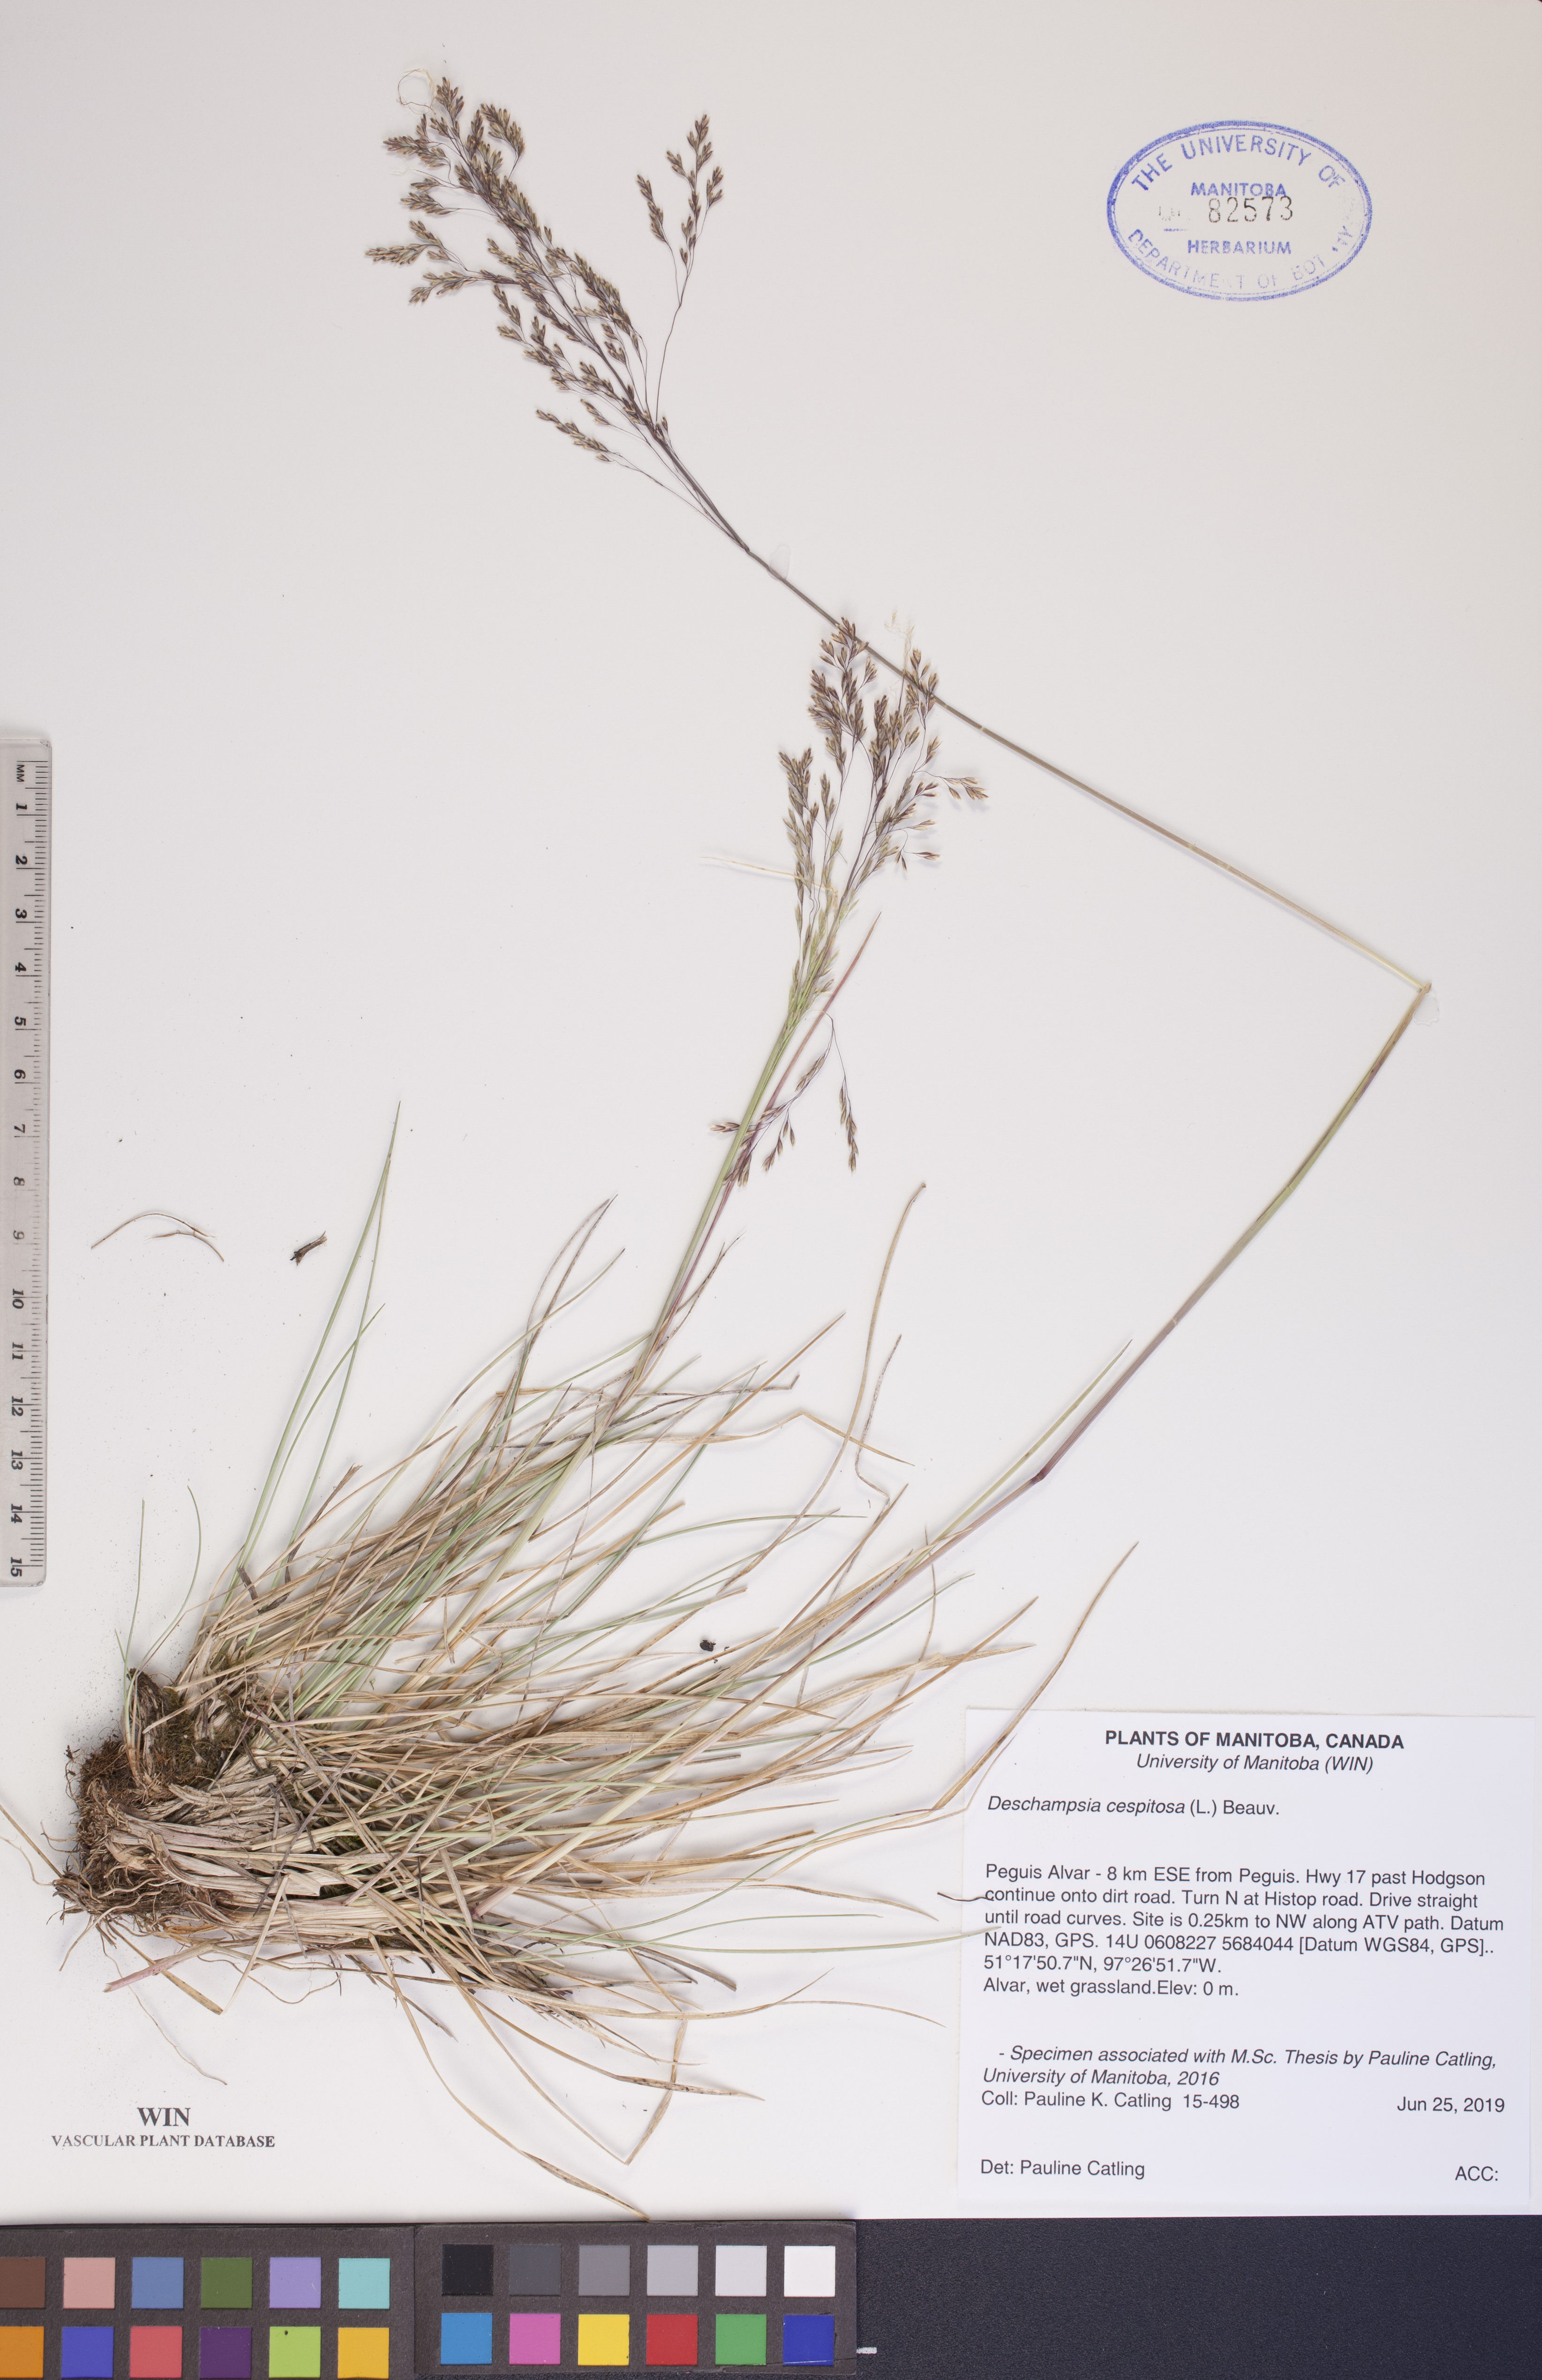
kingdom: Plantae
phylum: Tracheophyta
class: Liliopsida
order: Poales
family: Poaceae
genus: Deschampsia
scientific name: Deschampsia cespitosa
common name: Tufted hair-grass
